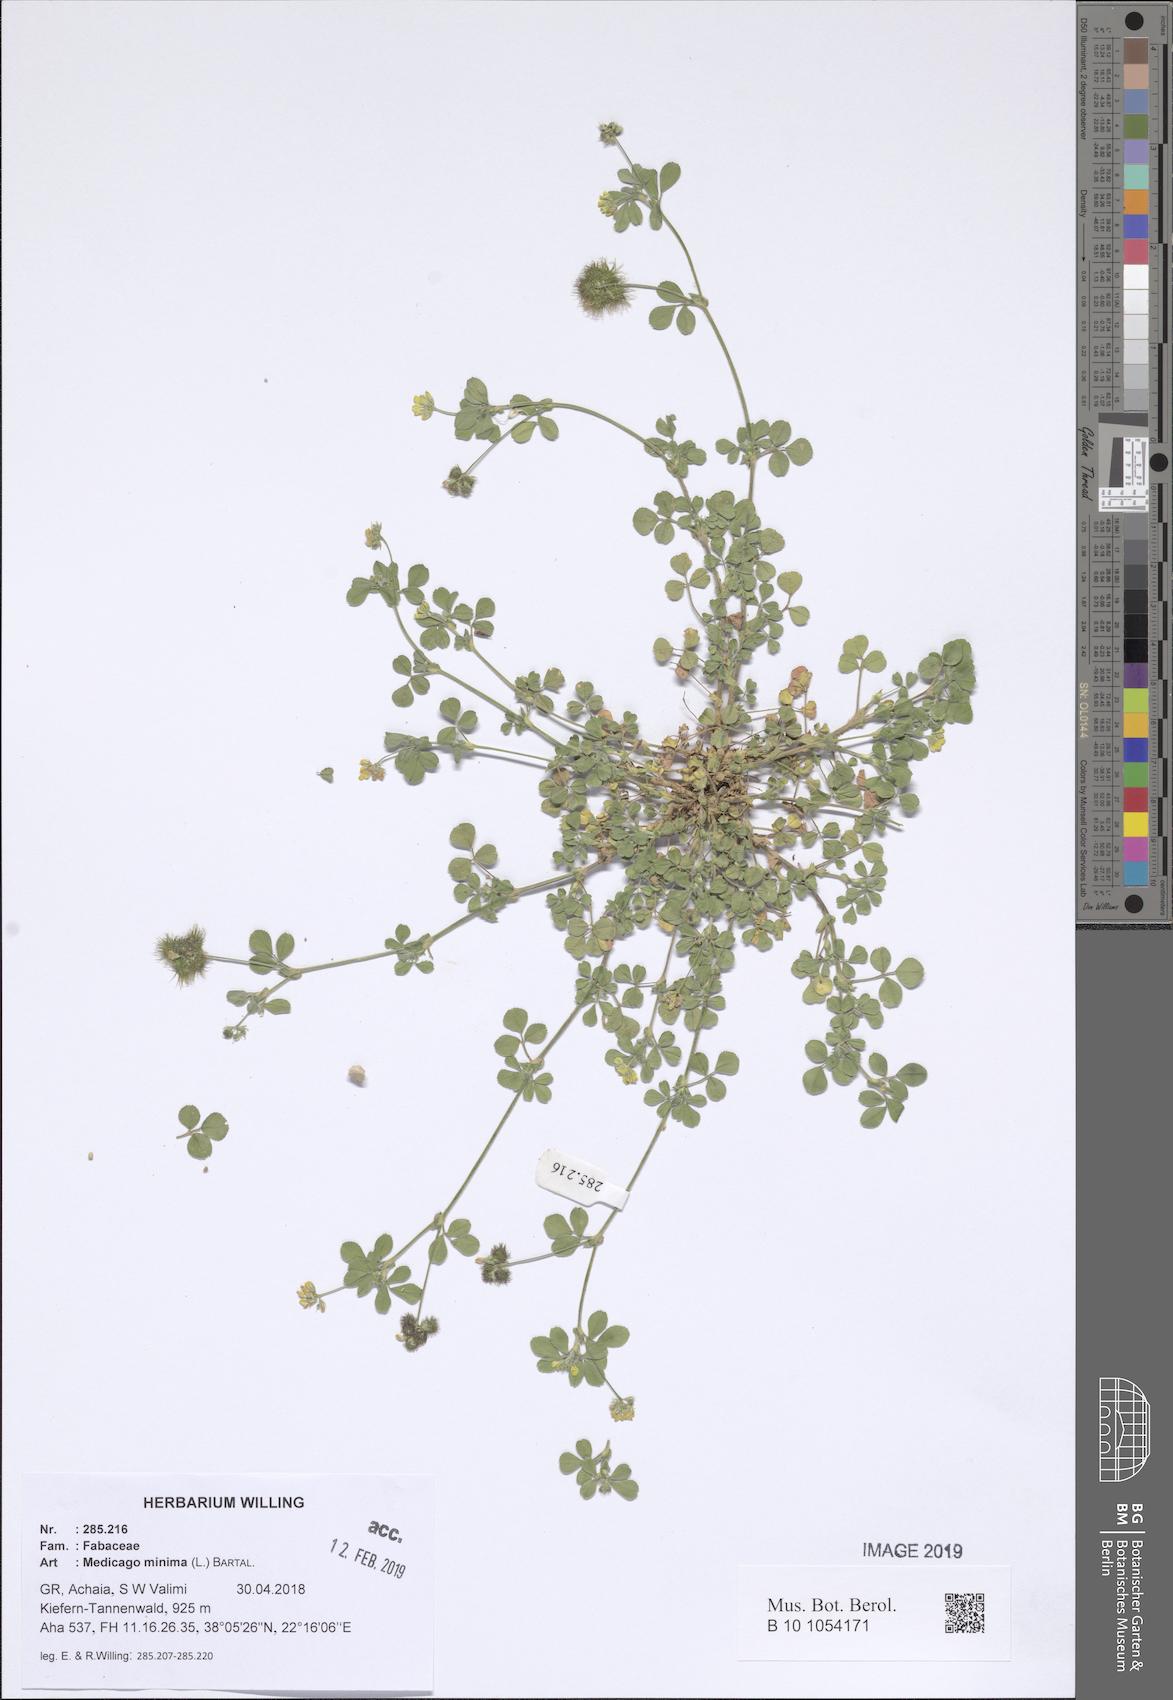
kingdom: Plantae
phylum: Tracheophyta
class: Magnoliopsida
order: Fabales
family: Fabaceae
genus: Medicago
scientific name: Medicago minima
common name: Little bur-clover
